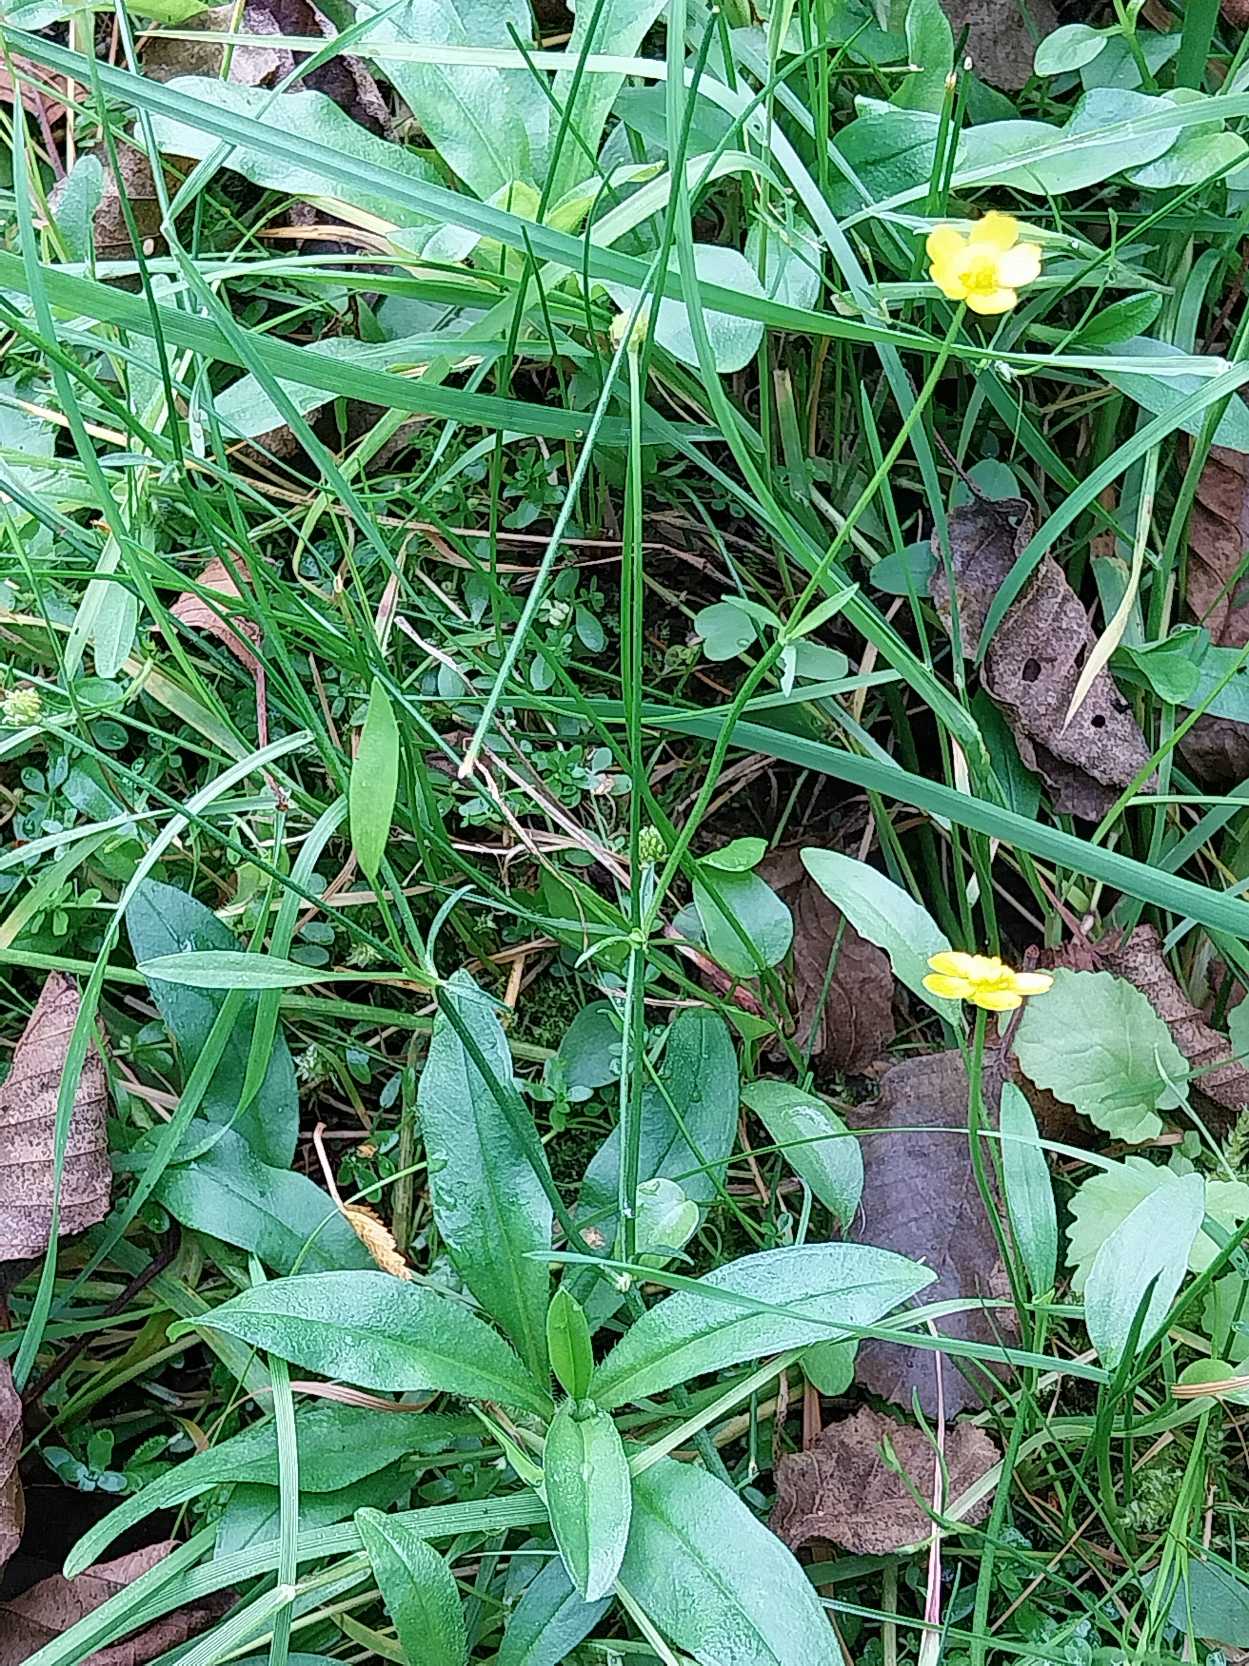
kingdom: Plantae
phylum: Tracheophyta
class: Magnoliopsida
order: Ranunculales
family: Ranunculaceae
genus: Ranunculus
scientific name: Ranunculus flammula
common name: Kær-ranunkel
